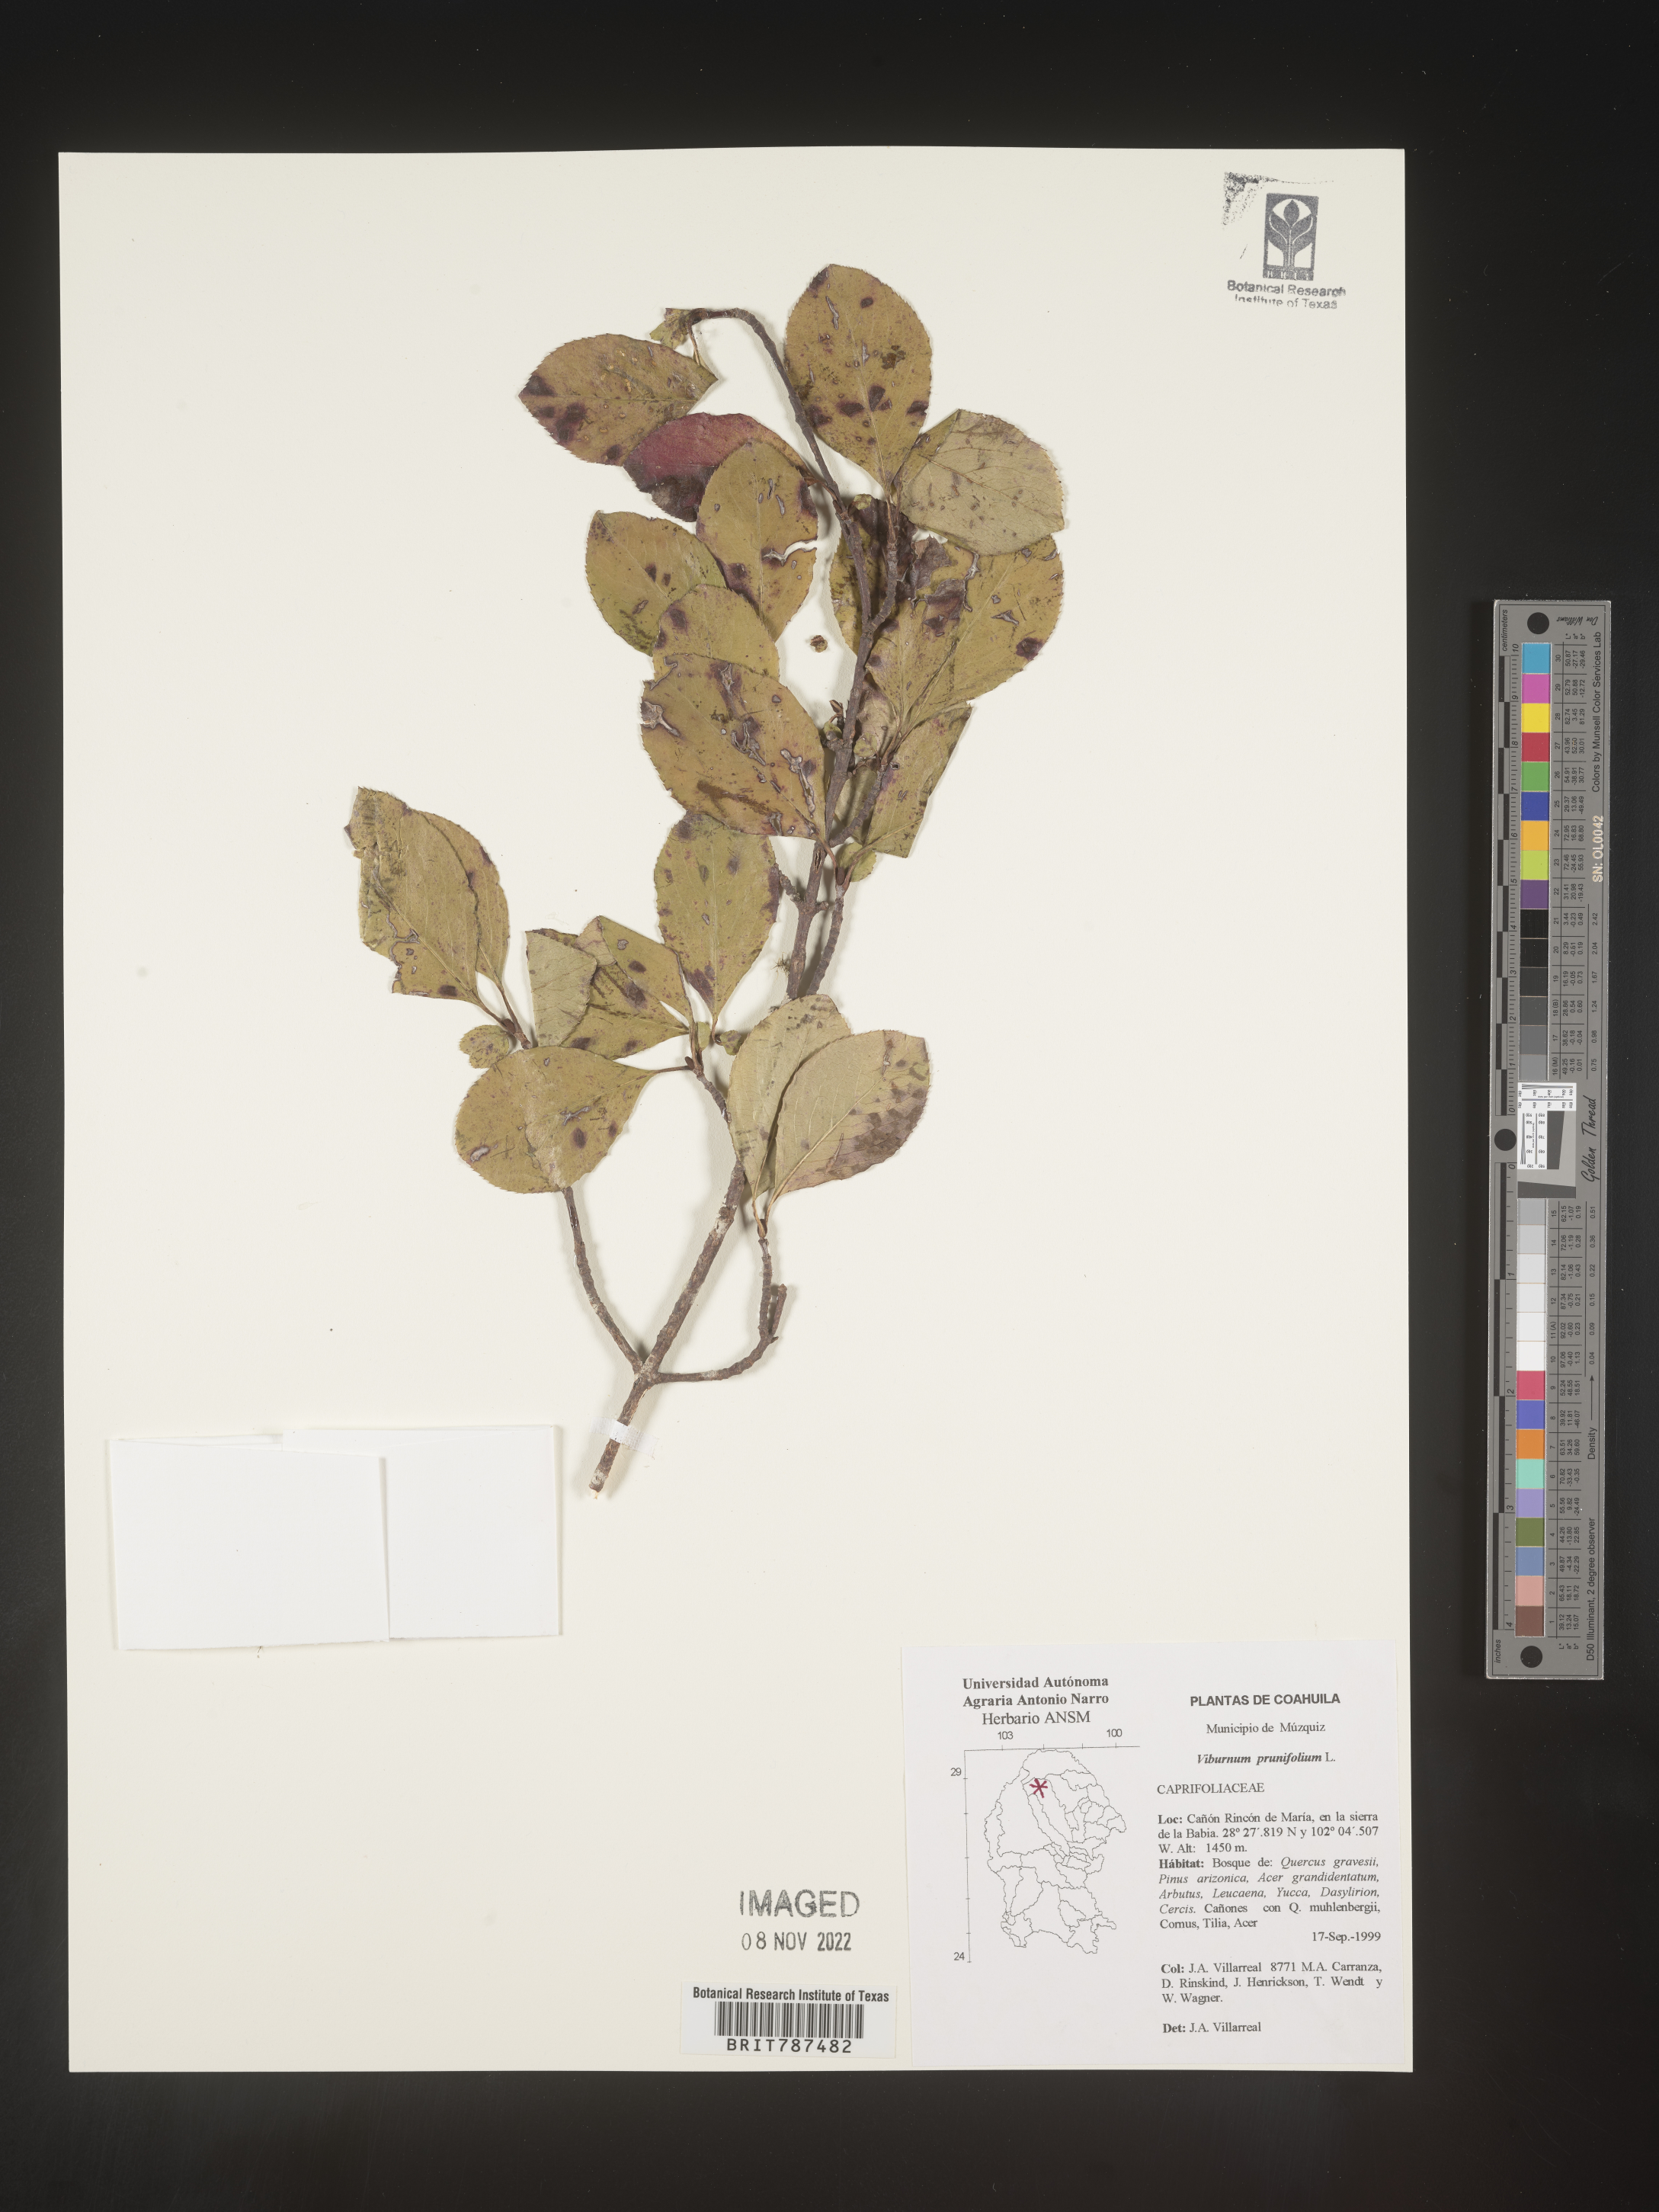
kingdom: Plantae
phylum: Tracheophyta
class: Magnoliopsida
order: Dipsacales
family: Viburnaceae
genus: Viburnum
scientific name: Viburnum
